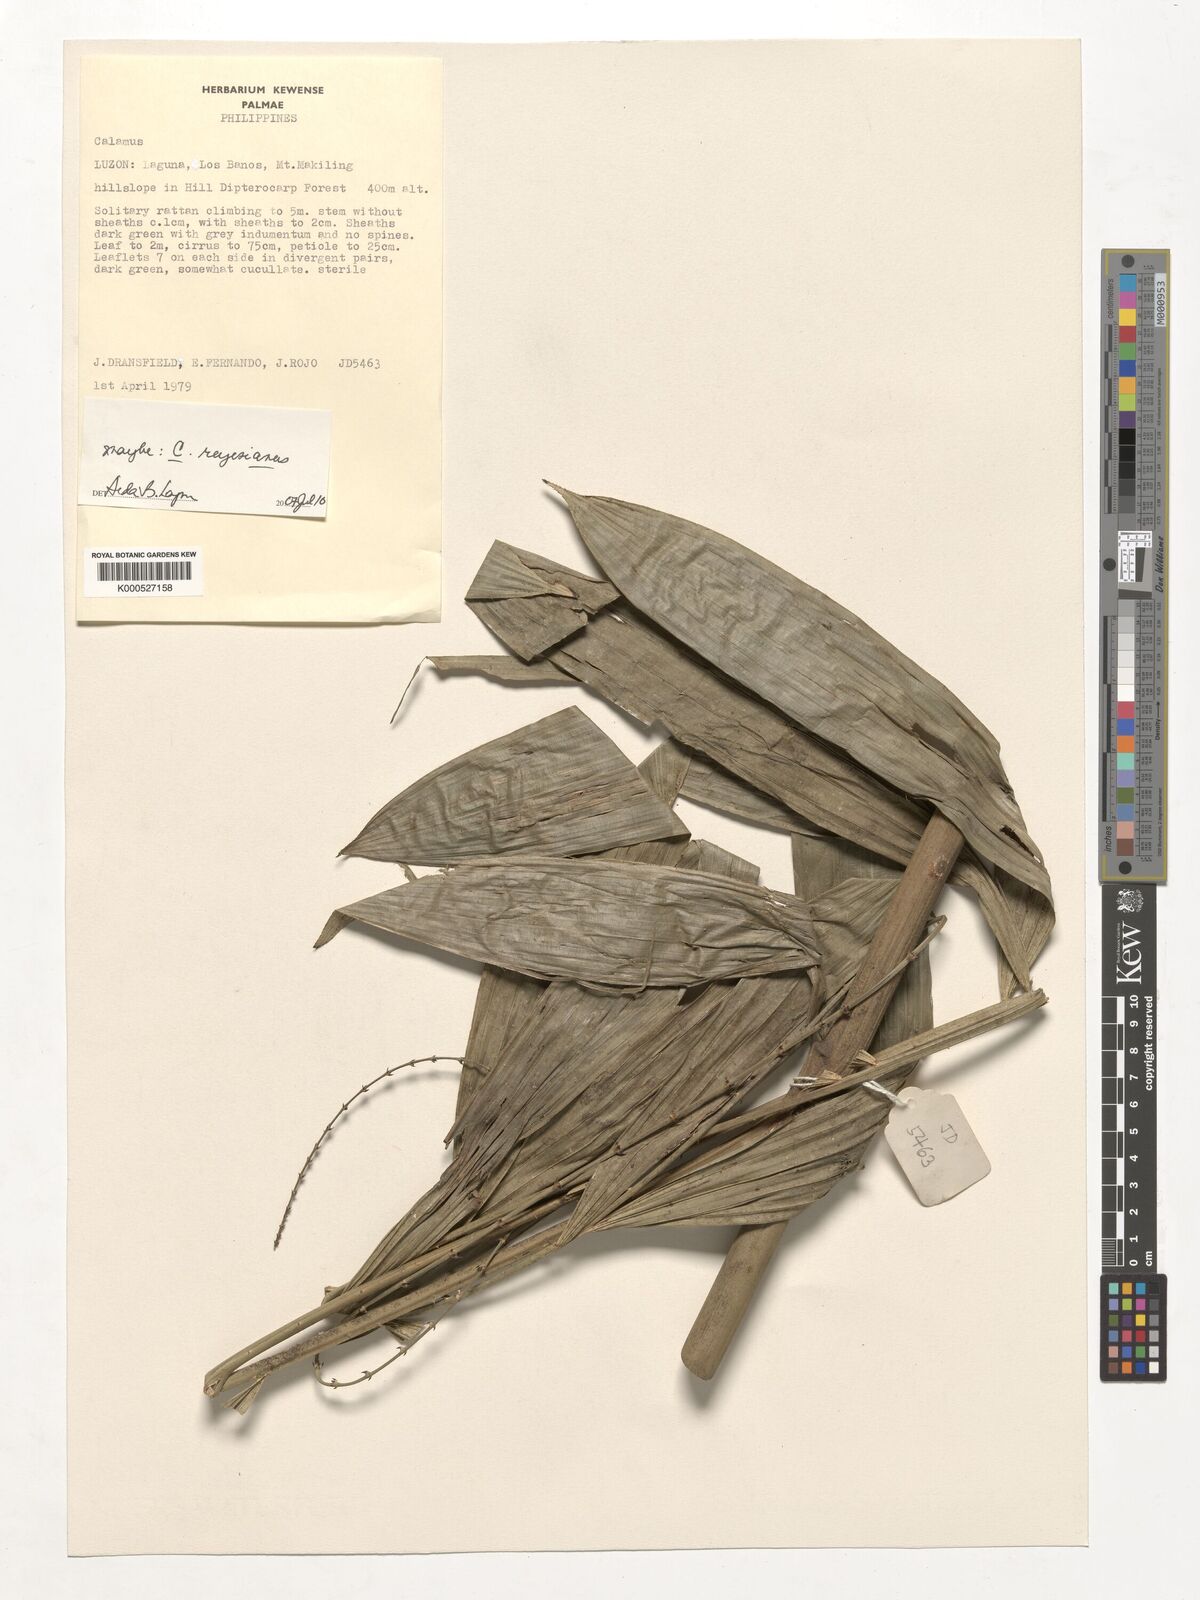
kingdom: Plantae
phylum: Tracheophyta
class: Liliopsida
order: Arecales
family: Arecaceae
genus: Calamus
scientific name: Calamus moseleyanus
